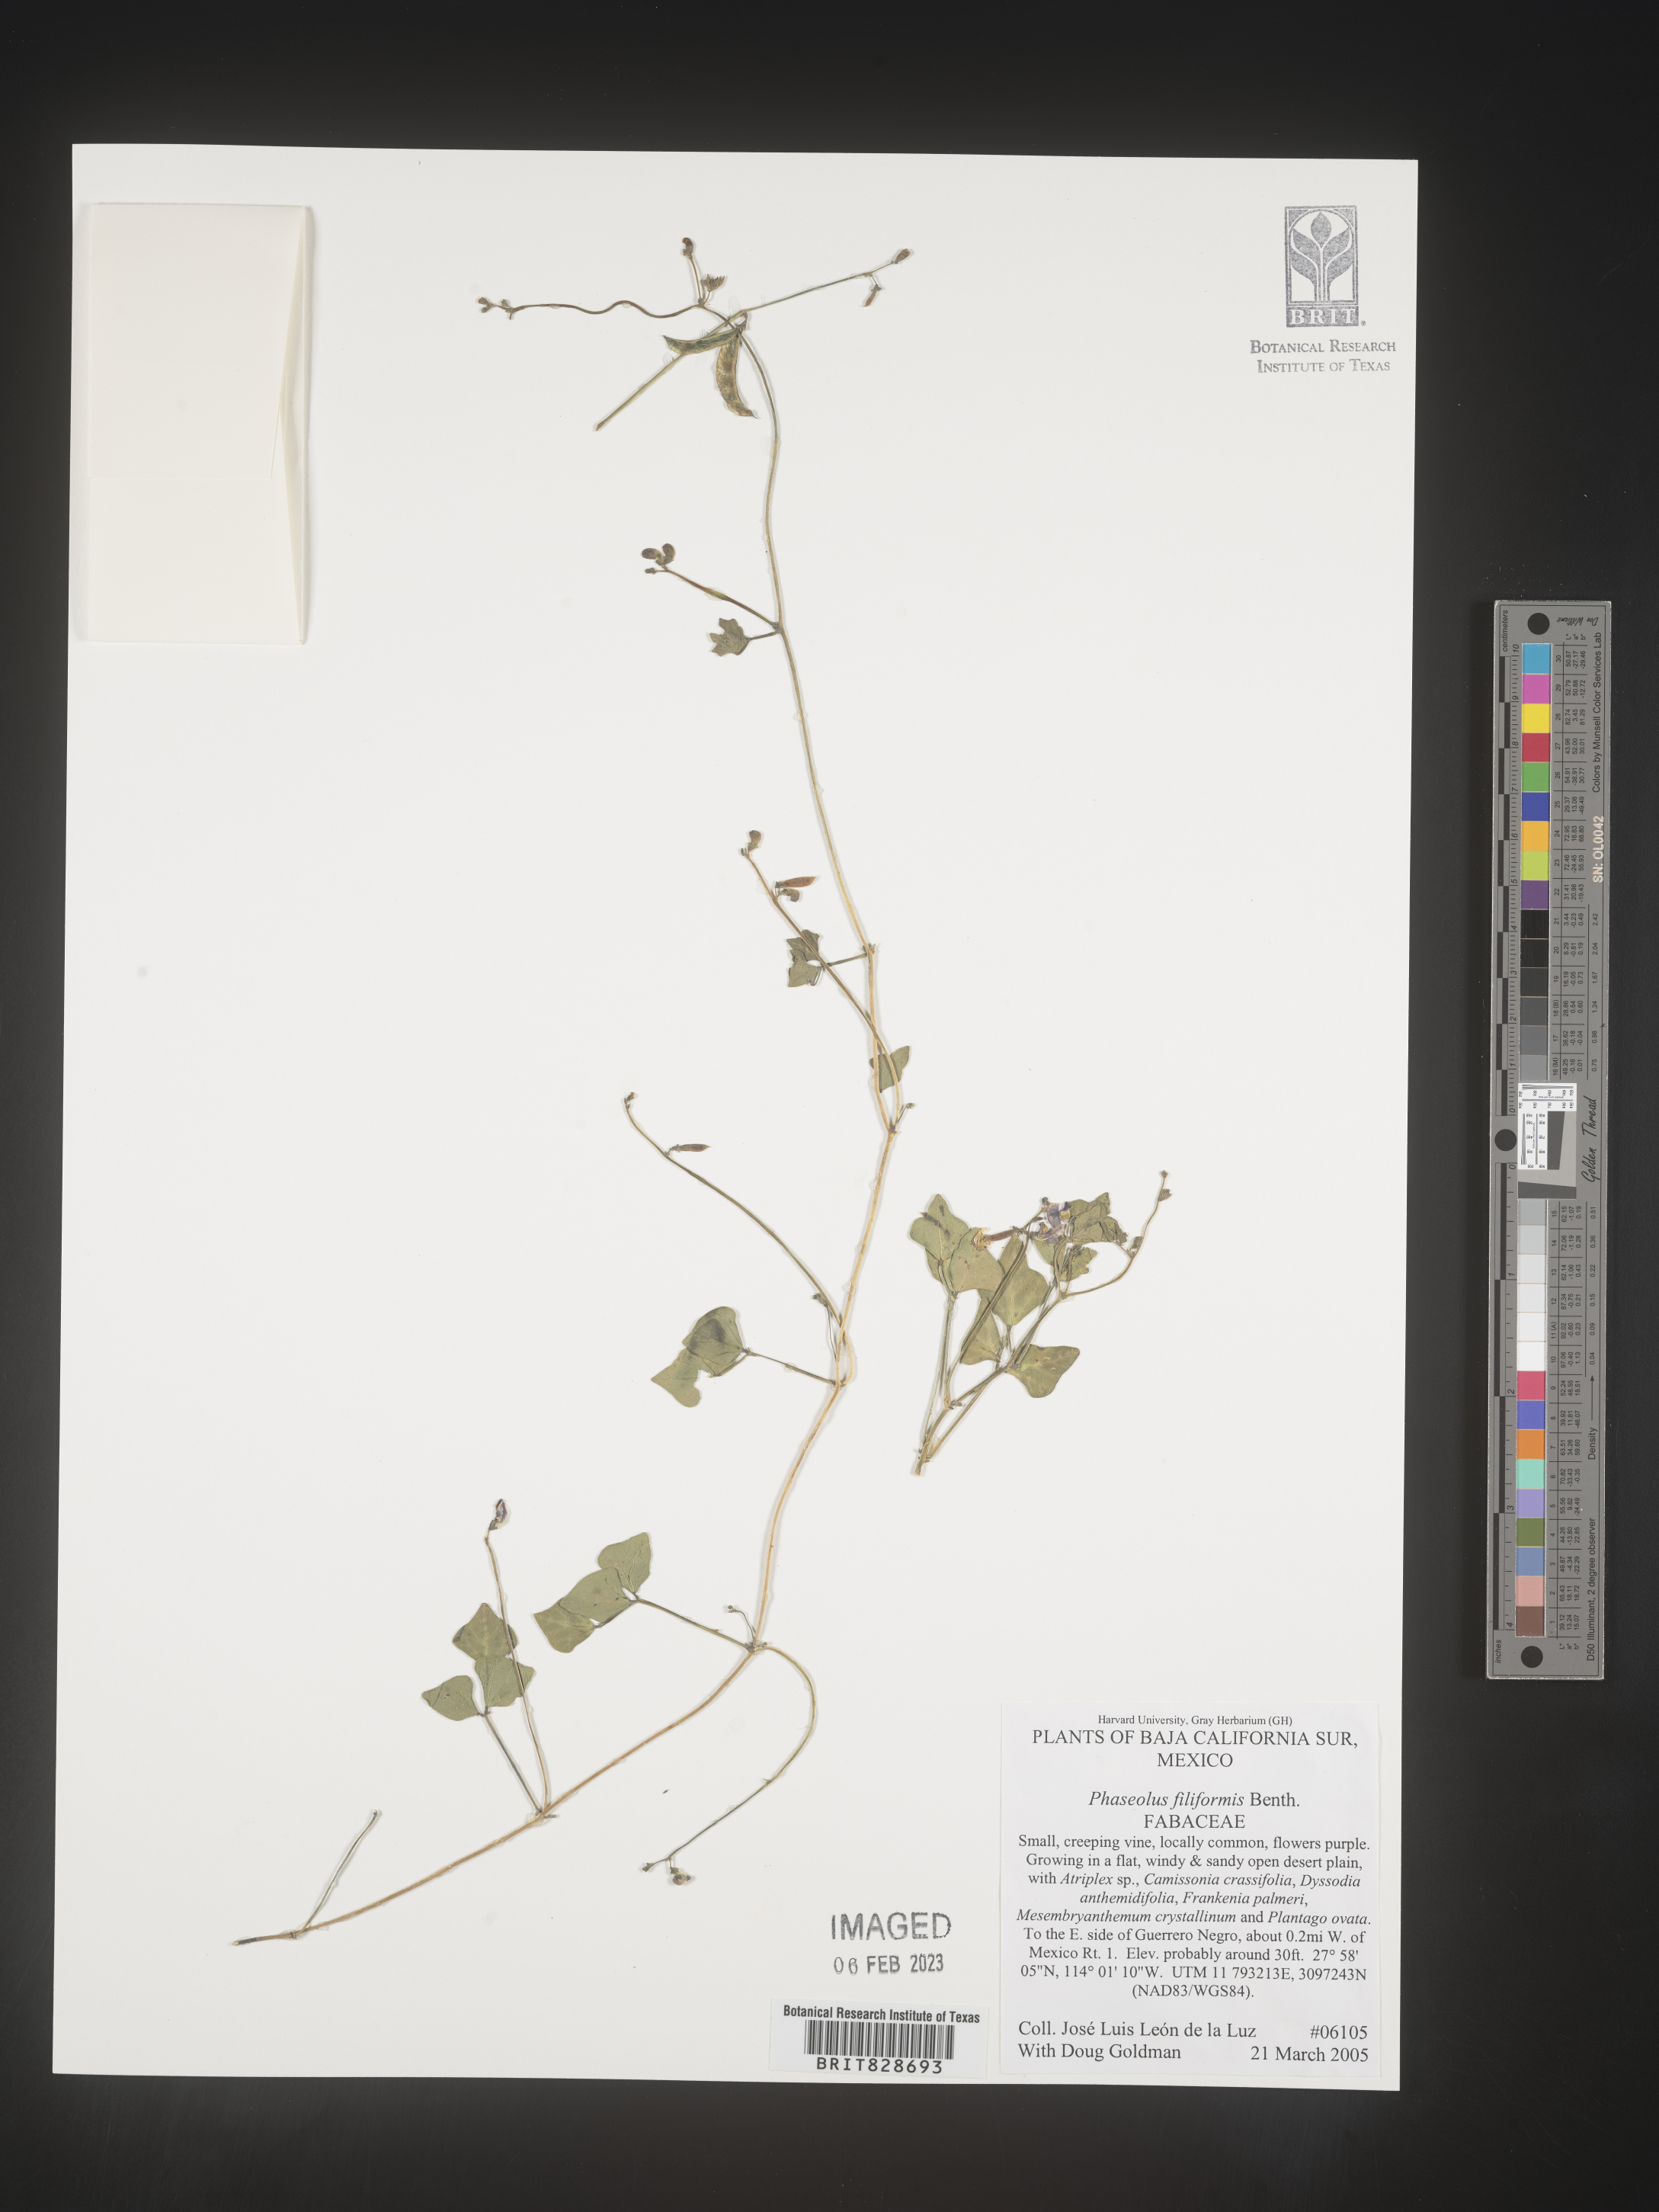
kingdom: Plantae
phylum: Tracheophyta
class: Magnoliopsida
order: Fabales
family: Fabaceae
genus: Phaseolus
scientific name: Phaseolus
